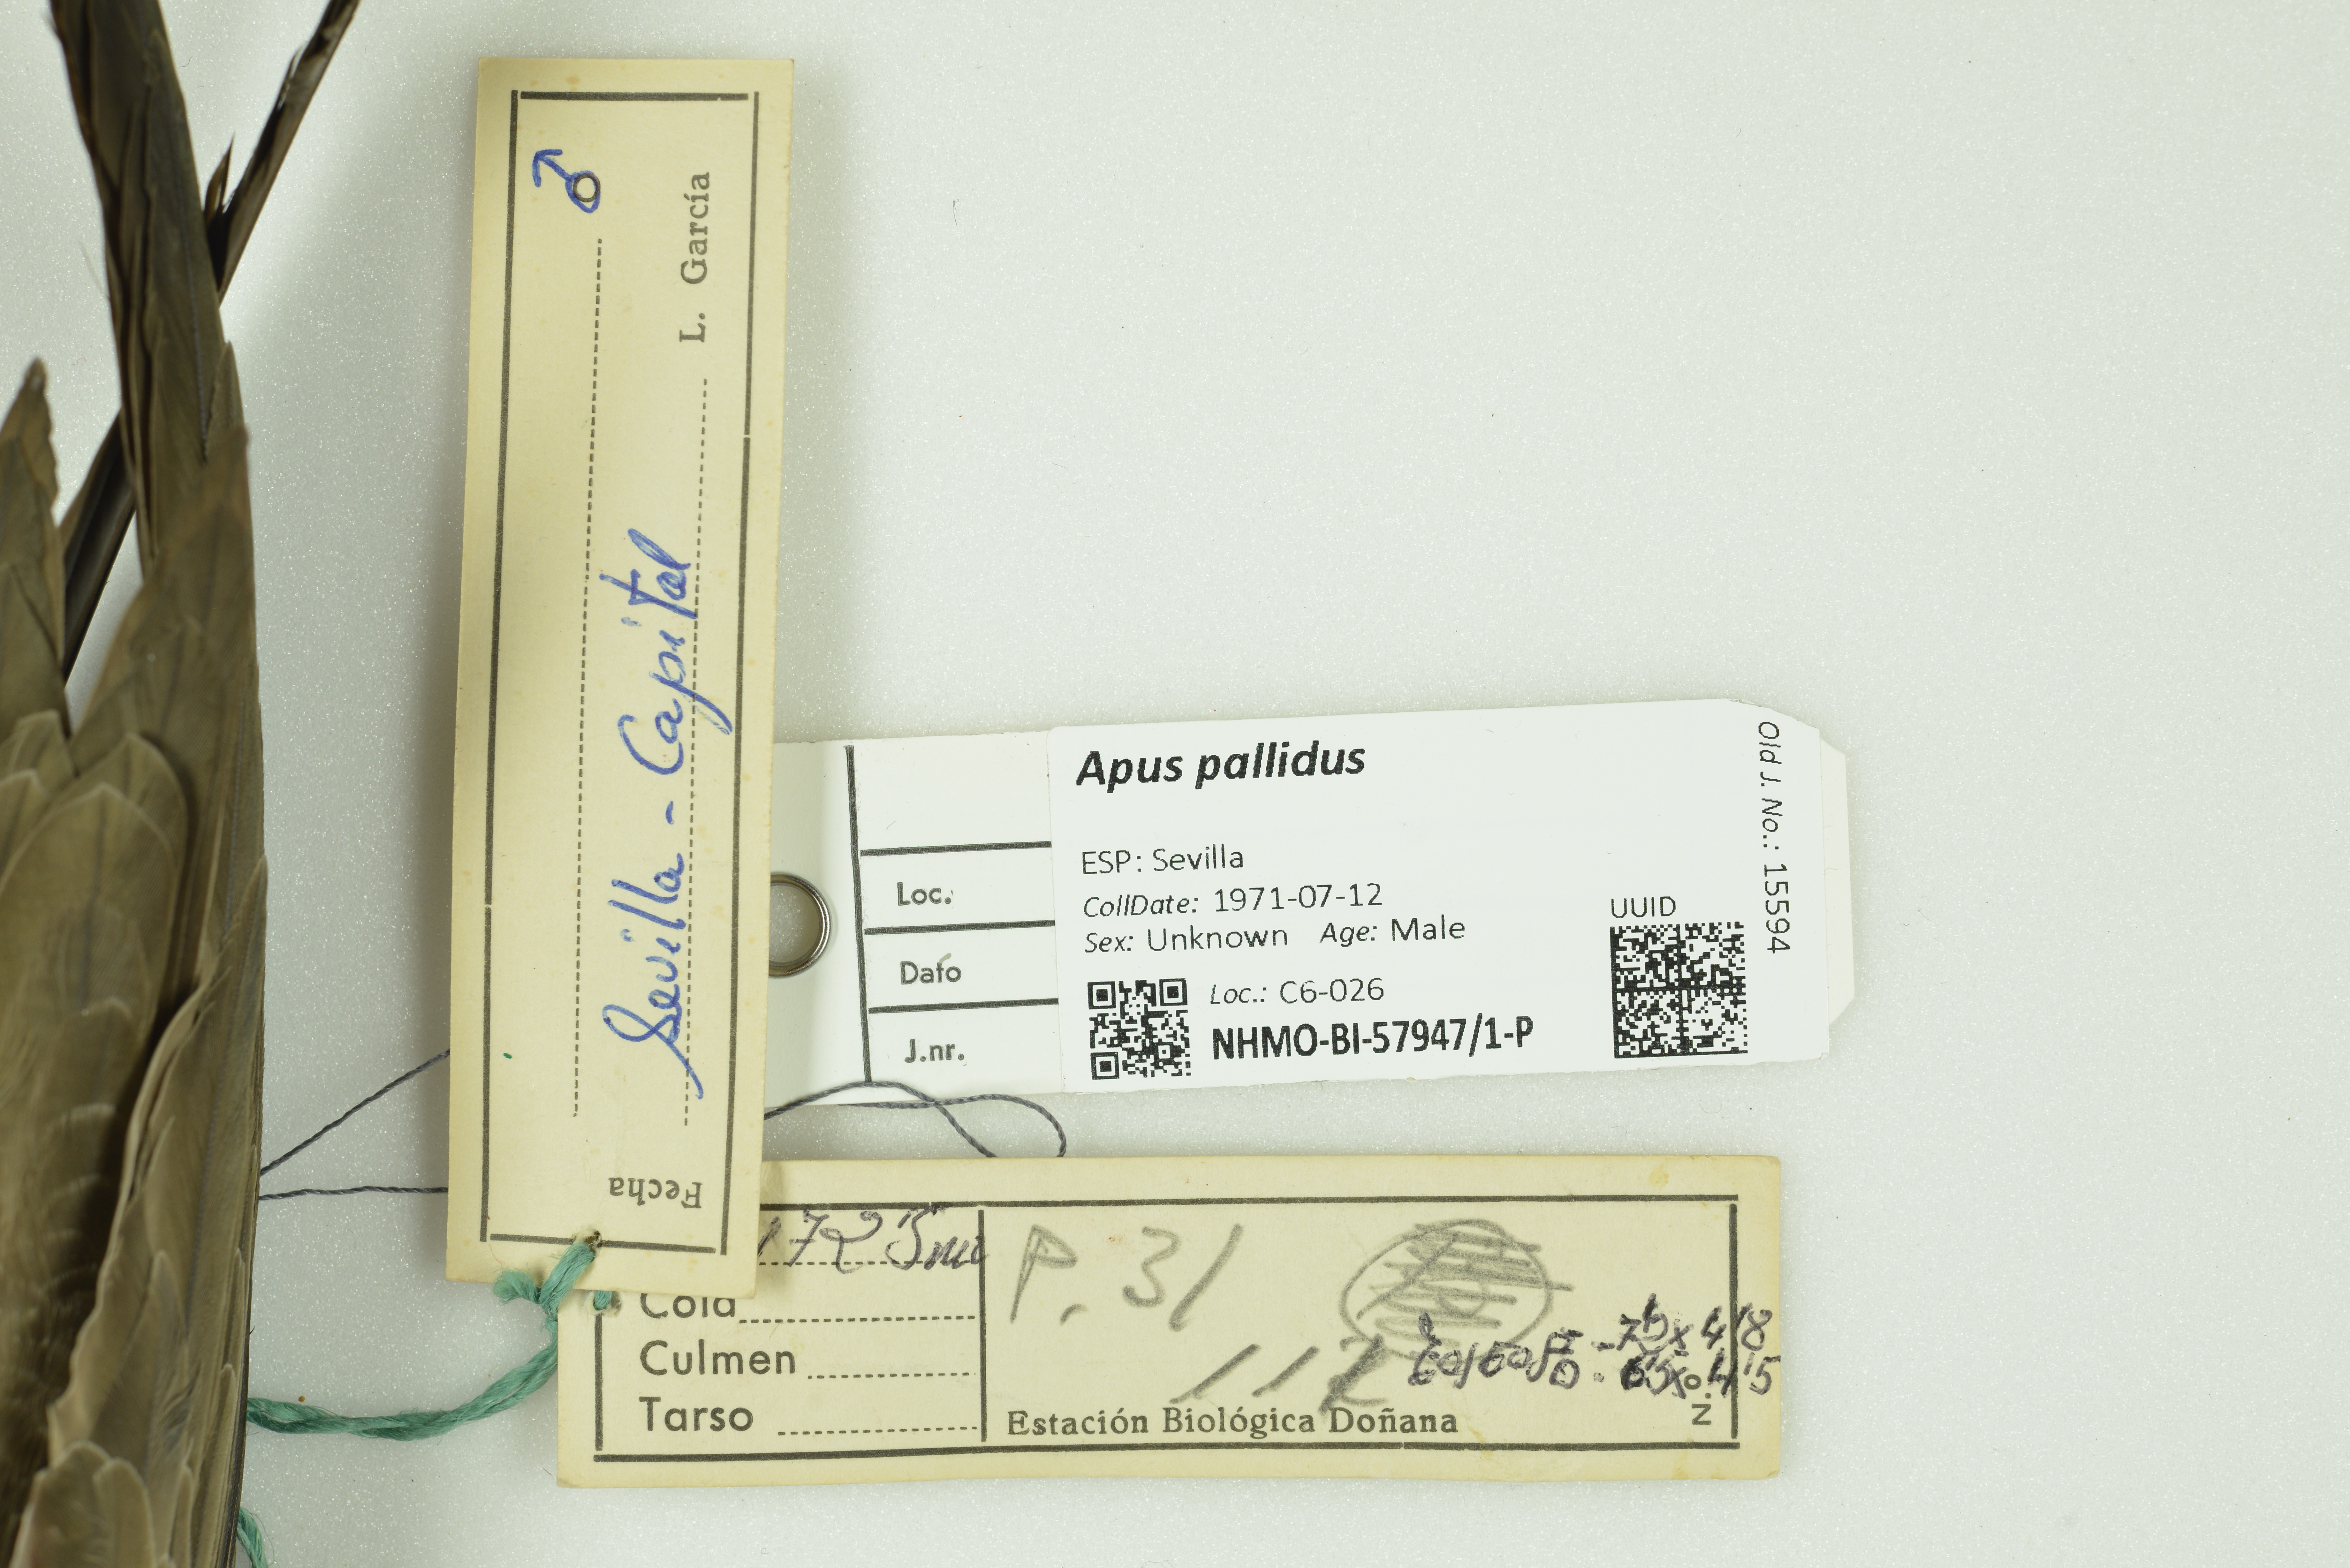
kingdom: Animalia
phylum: Chordata
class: Aves
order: Apodiformes
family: Apodidae
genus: Apus
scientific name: Apus pallidus
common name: Pallid swift
